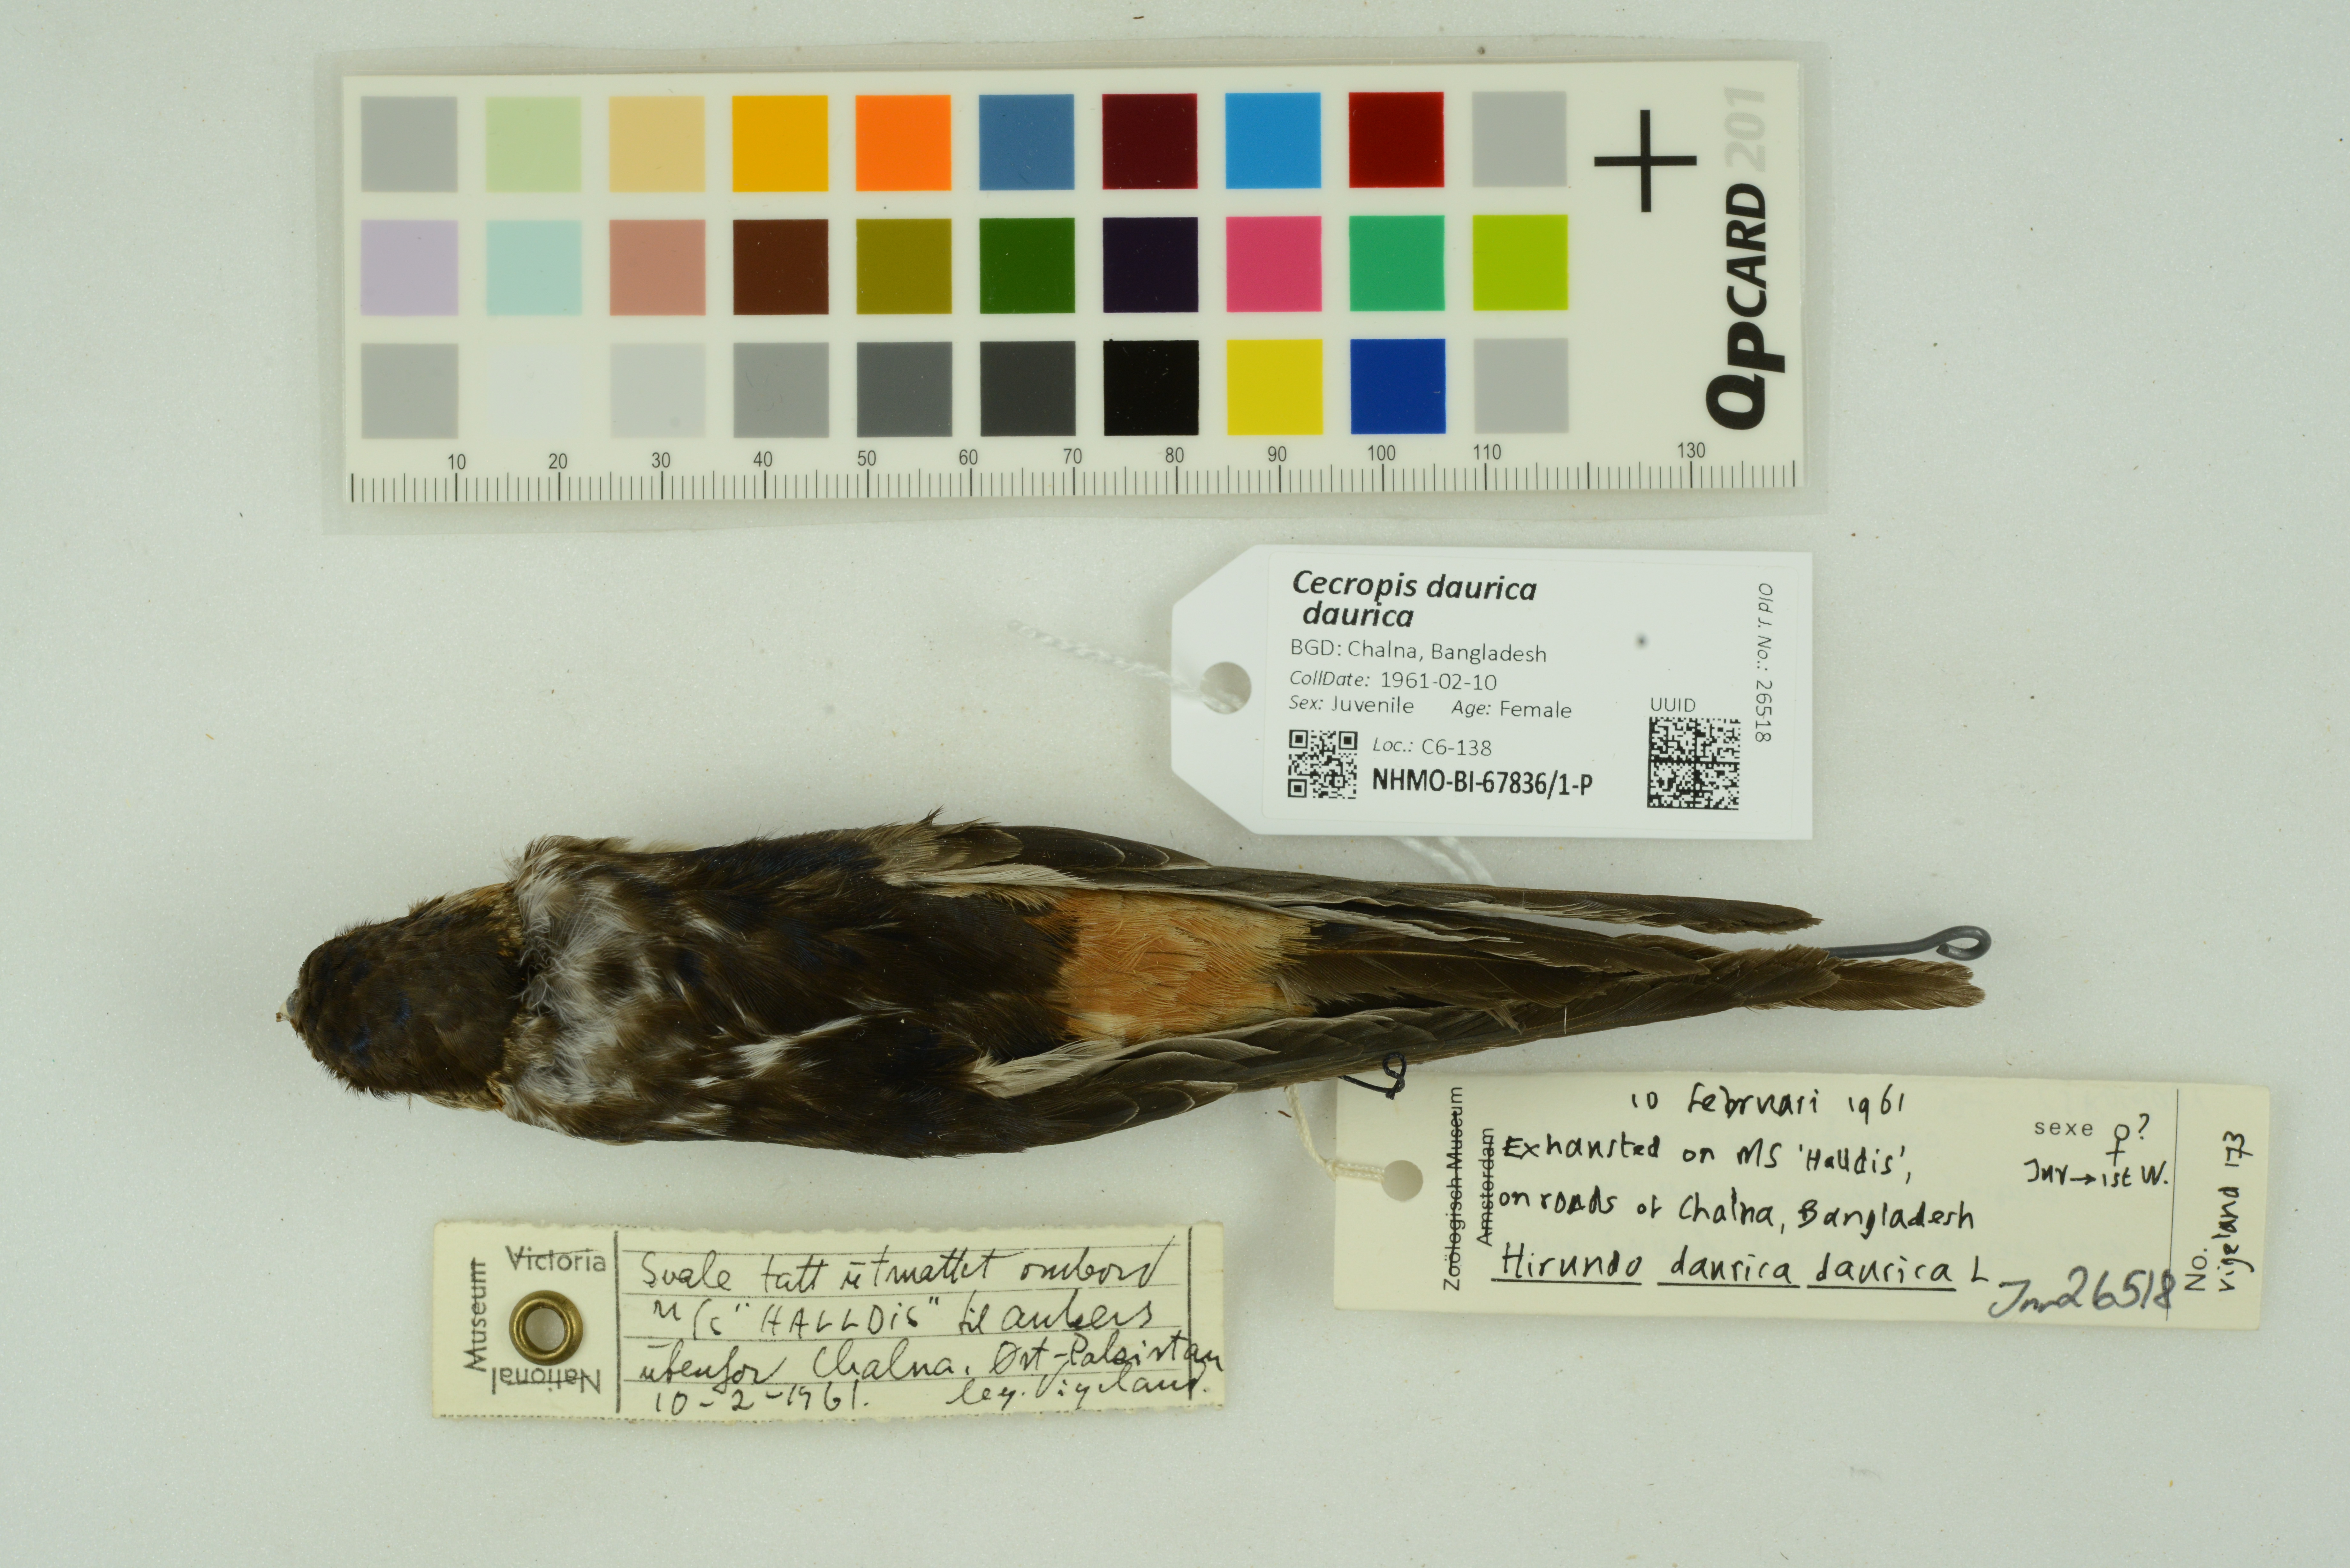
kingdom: Animalia
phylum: Chordata
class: Aves
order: Passeriformes
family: Hirundinidae
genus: Cecropis
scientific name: Cecropis daurica
